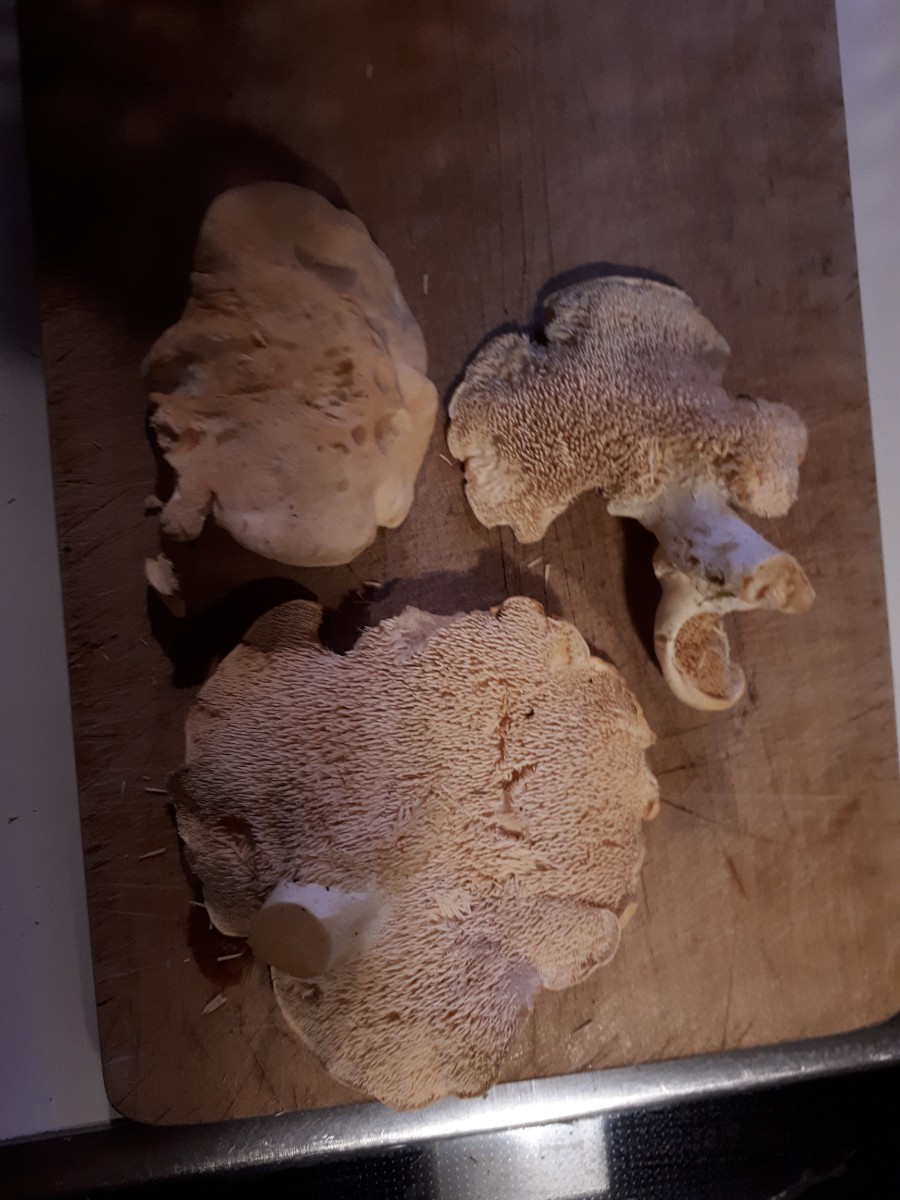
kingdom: Fungi
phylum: Basidiomycota
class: Agaricomycetes
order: Cantharellales
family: Hydnaceae
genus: Hydnum
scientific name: Hydnum repandum
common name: almindelig pigsvamp
